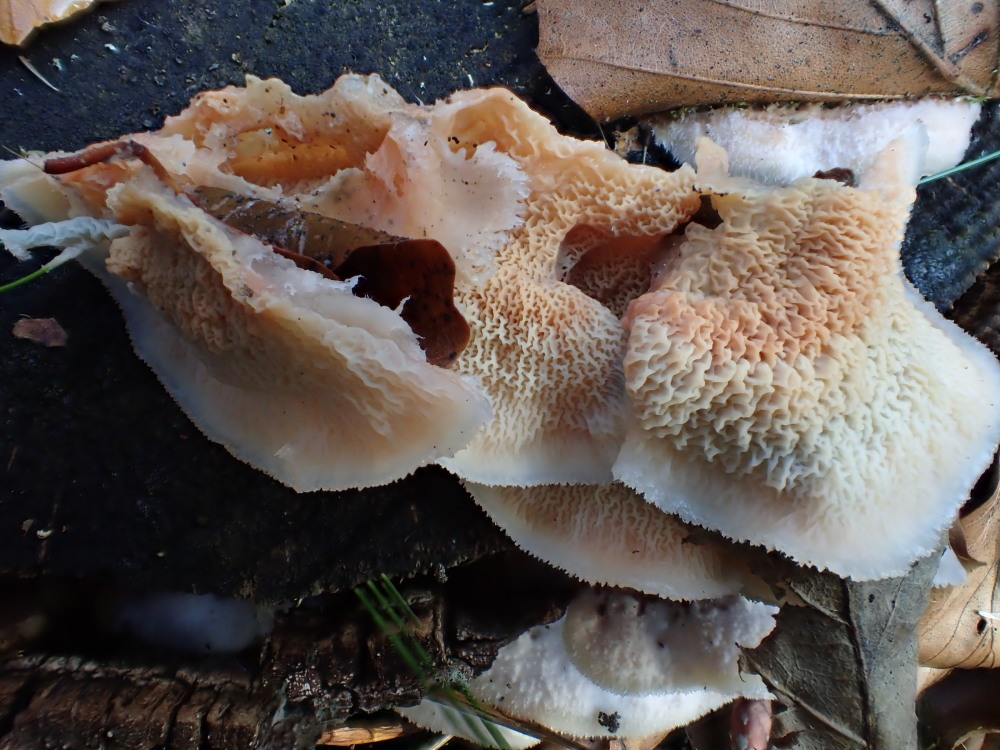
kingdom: Fungi
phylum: Basidiomycota
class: Agaricomycetes
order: Polyporales
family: Meruliaceae
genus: Phlebia
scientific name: Phlebia tremellosa
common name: bævrende åresvamp
